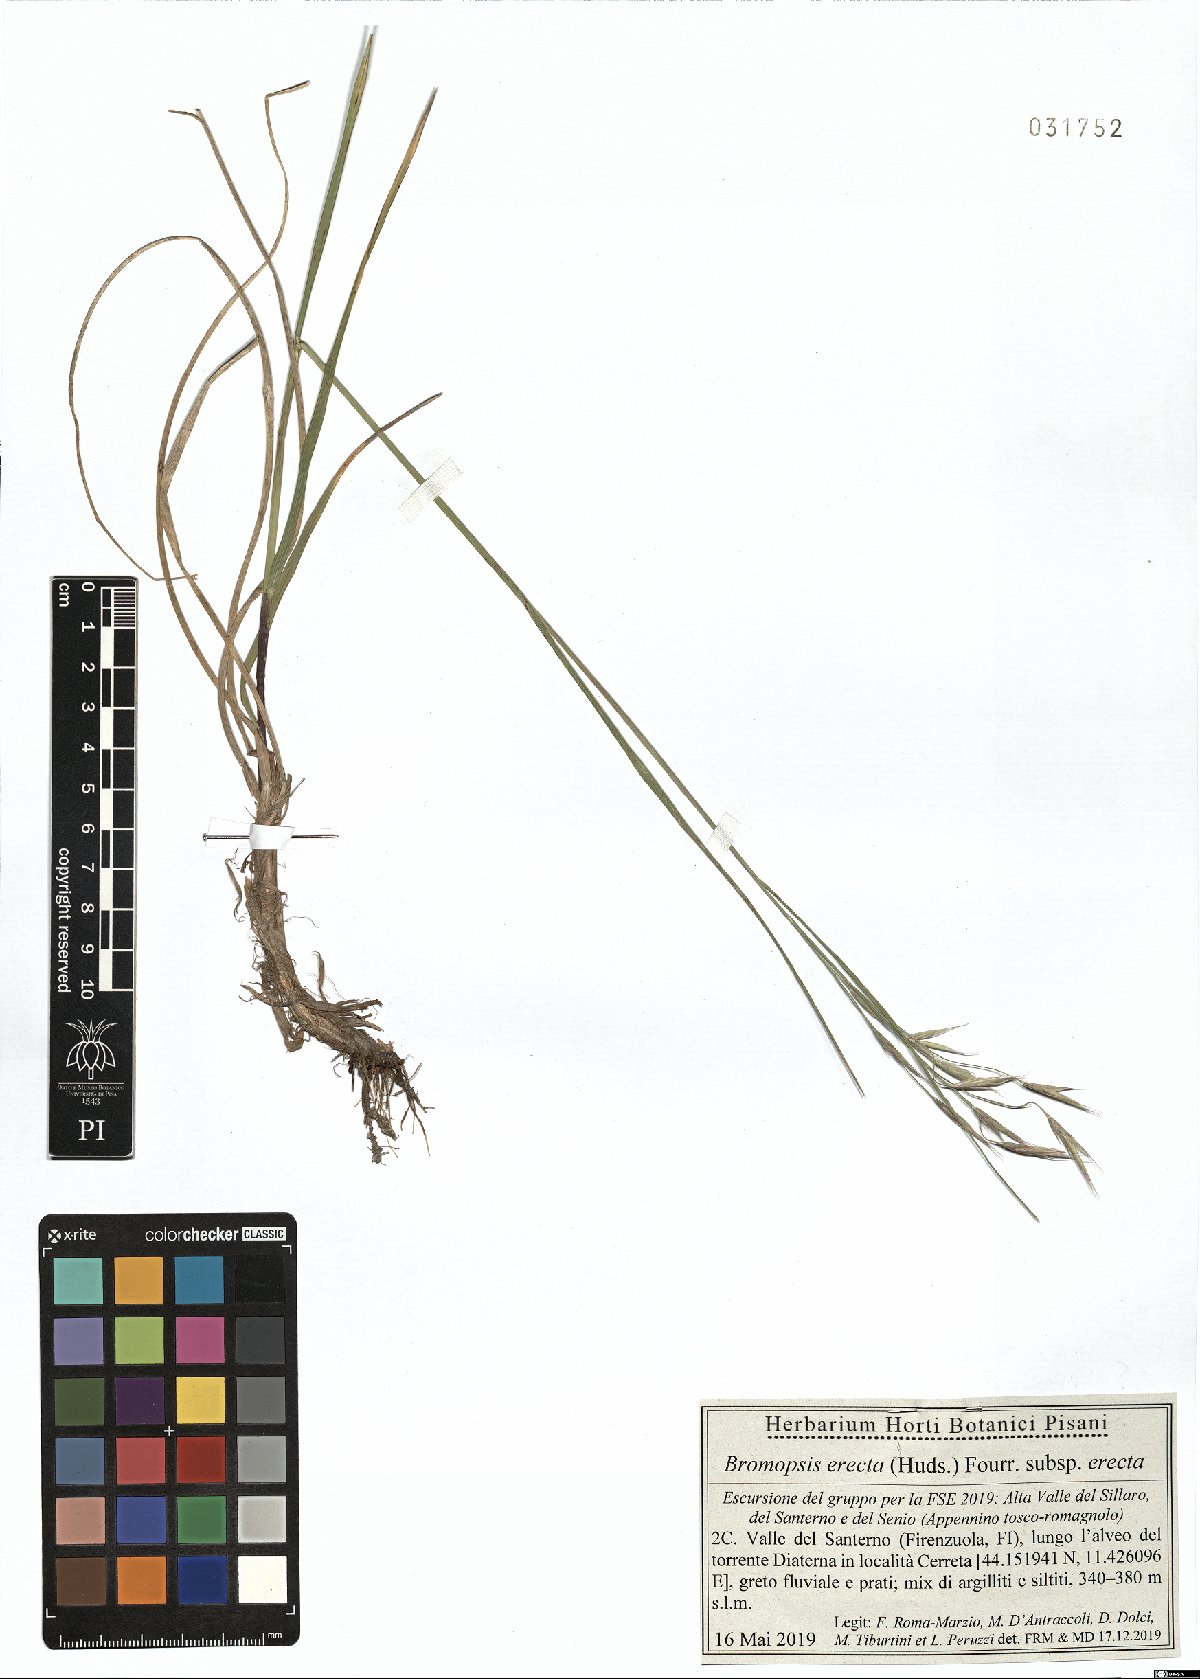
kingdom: Plantae
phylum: Tracheophyta
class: Liliopsida
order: Poales
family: Poaceae
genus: Bromus
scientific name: Bromus erectus
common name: Erect brome
